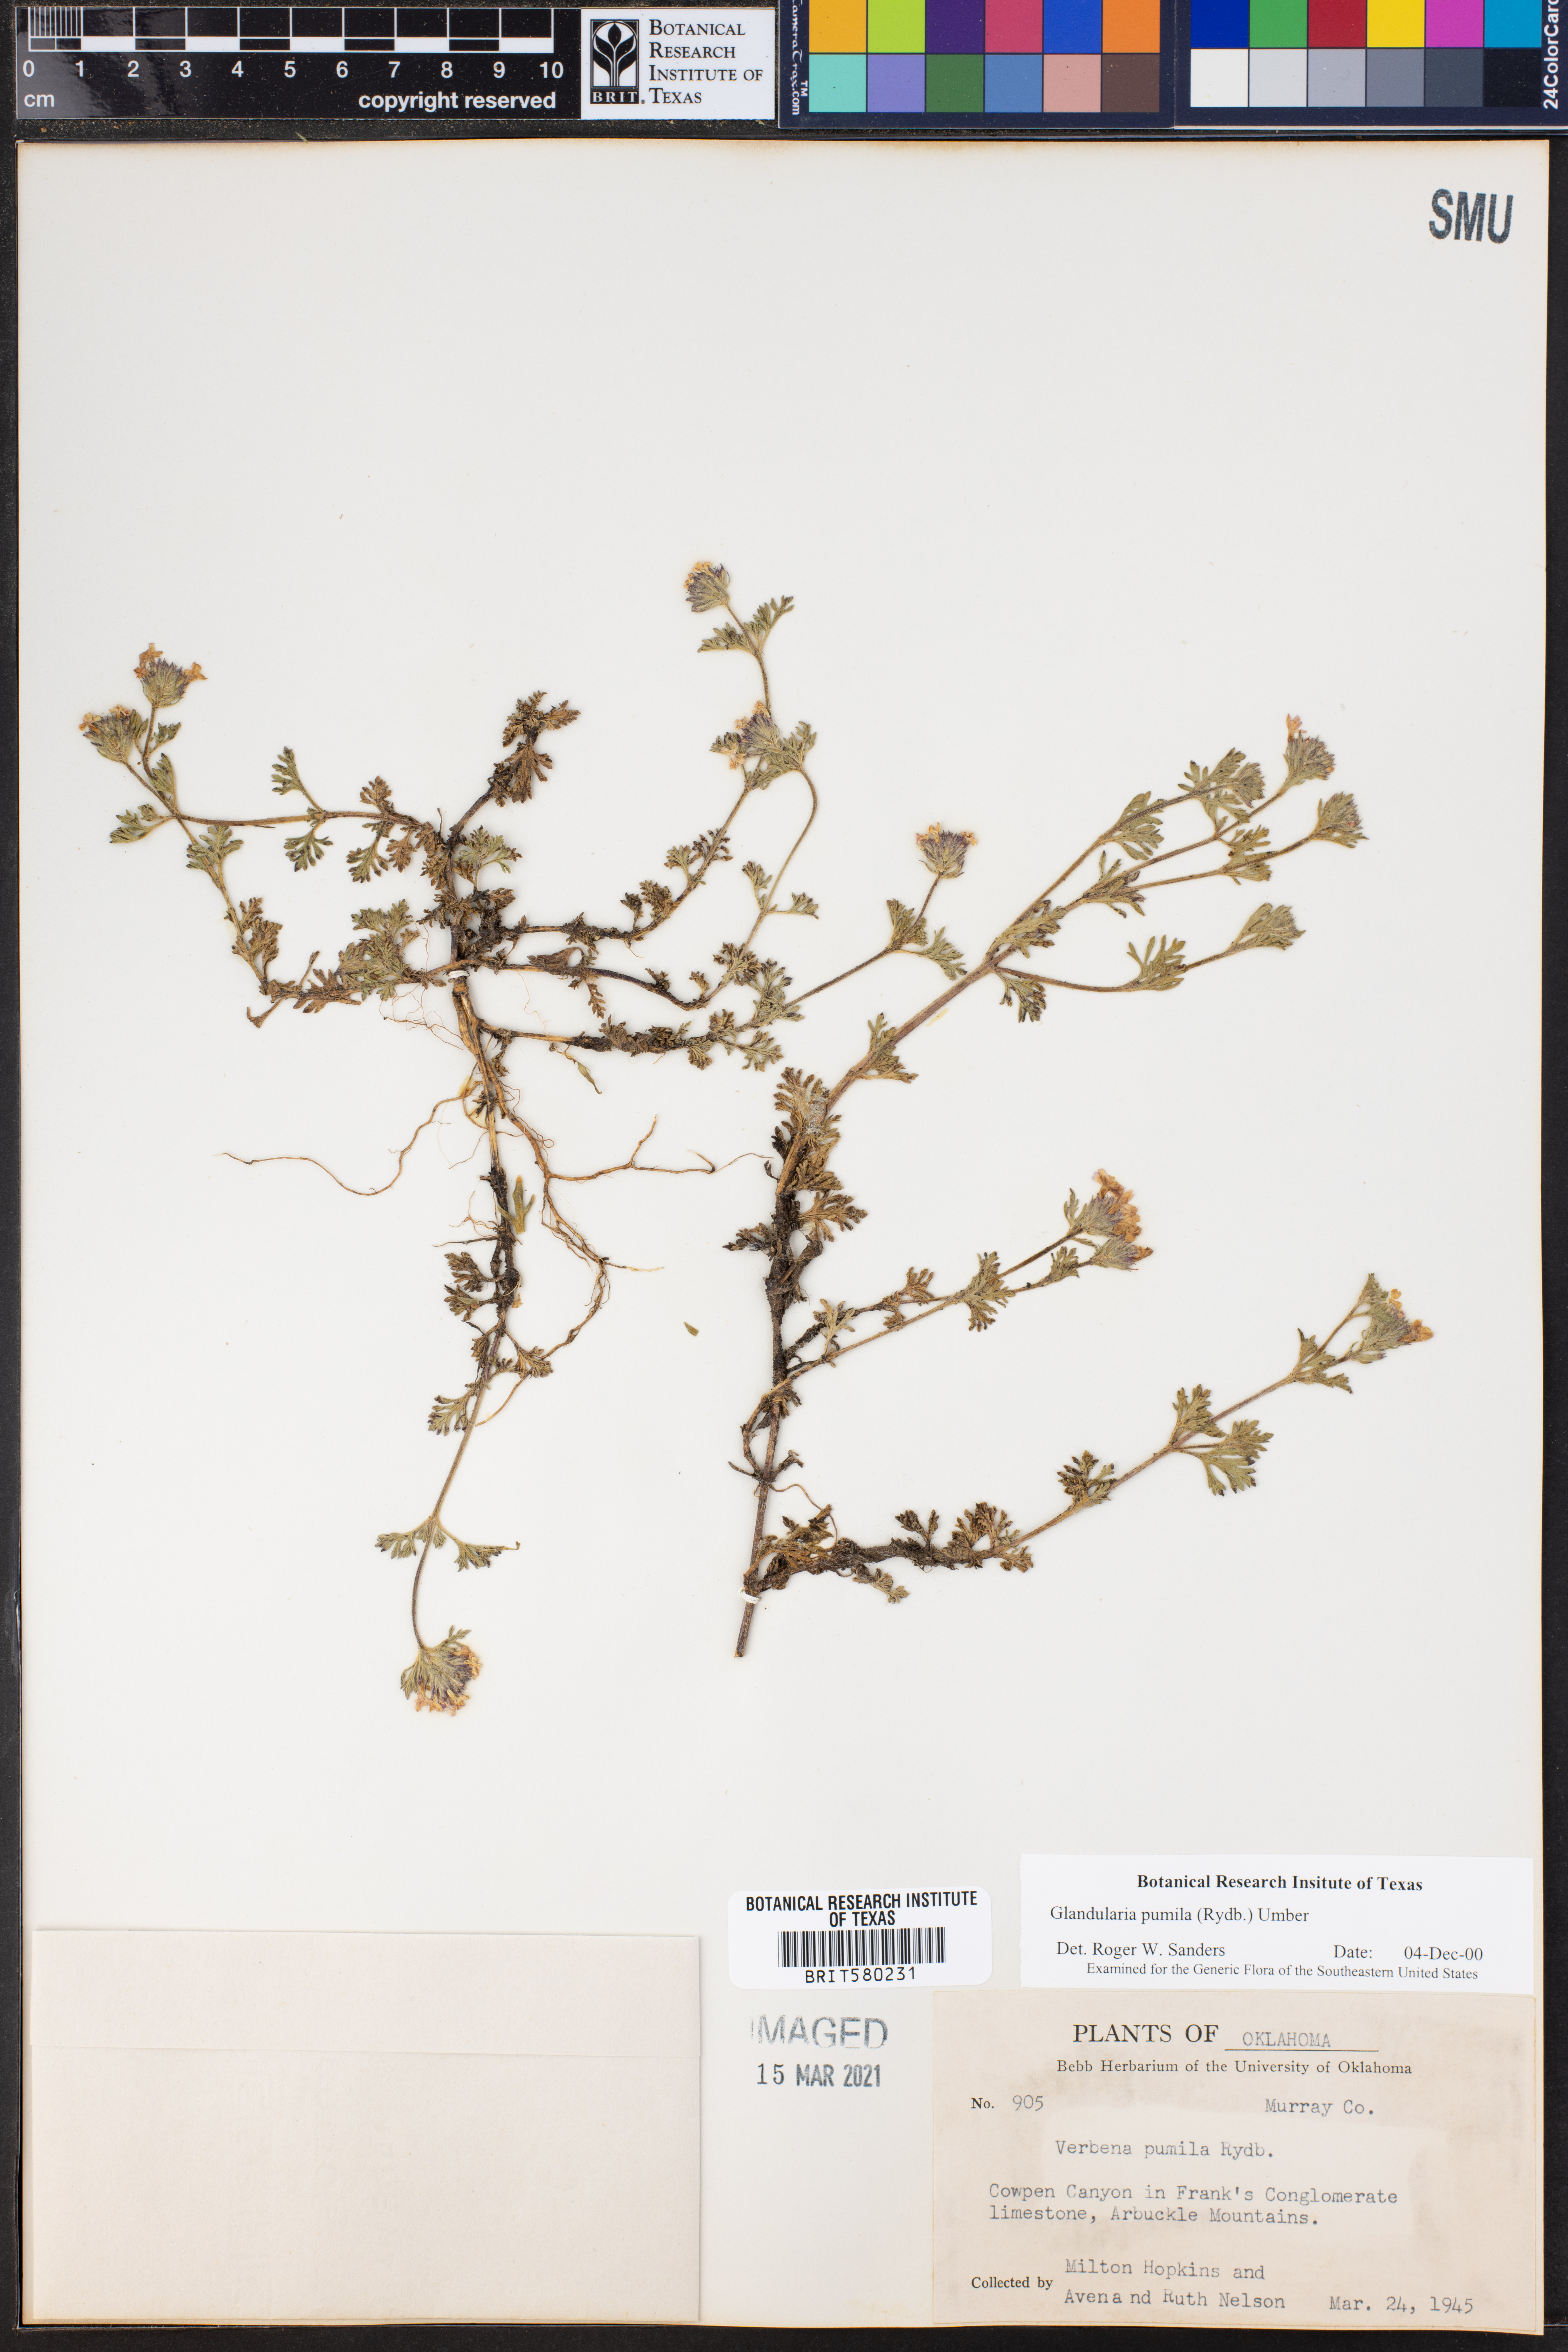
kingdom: Plantae
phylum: Tracheophyta
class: Magnoliopsida
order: Lamiales
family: Verbenaceae
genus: Verbena
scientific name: Verbena pumila
